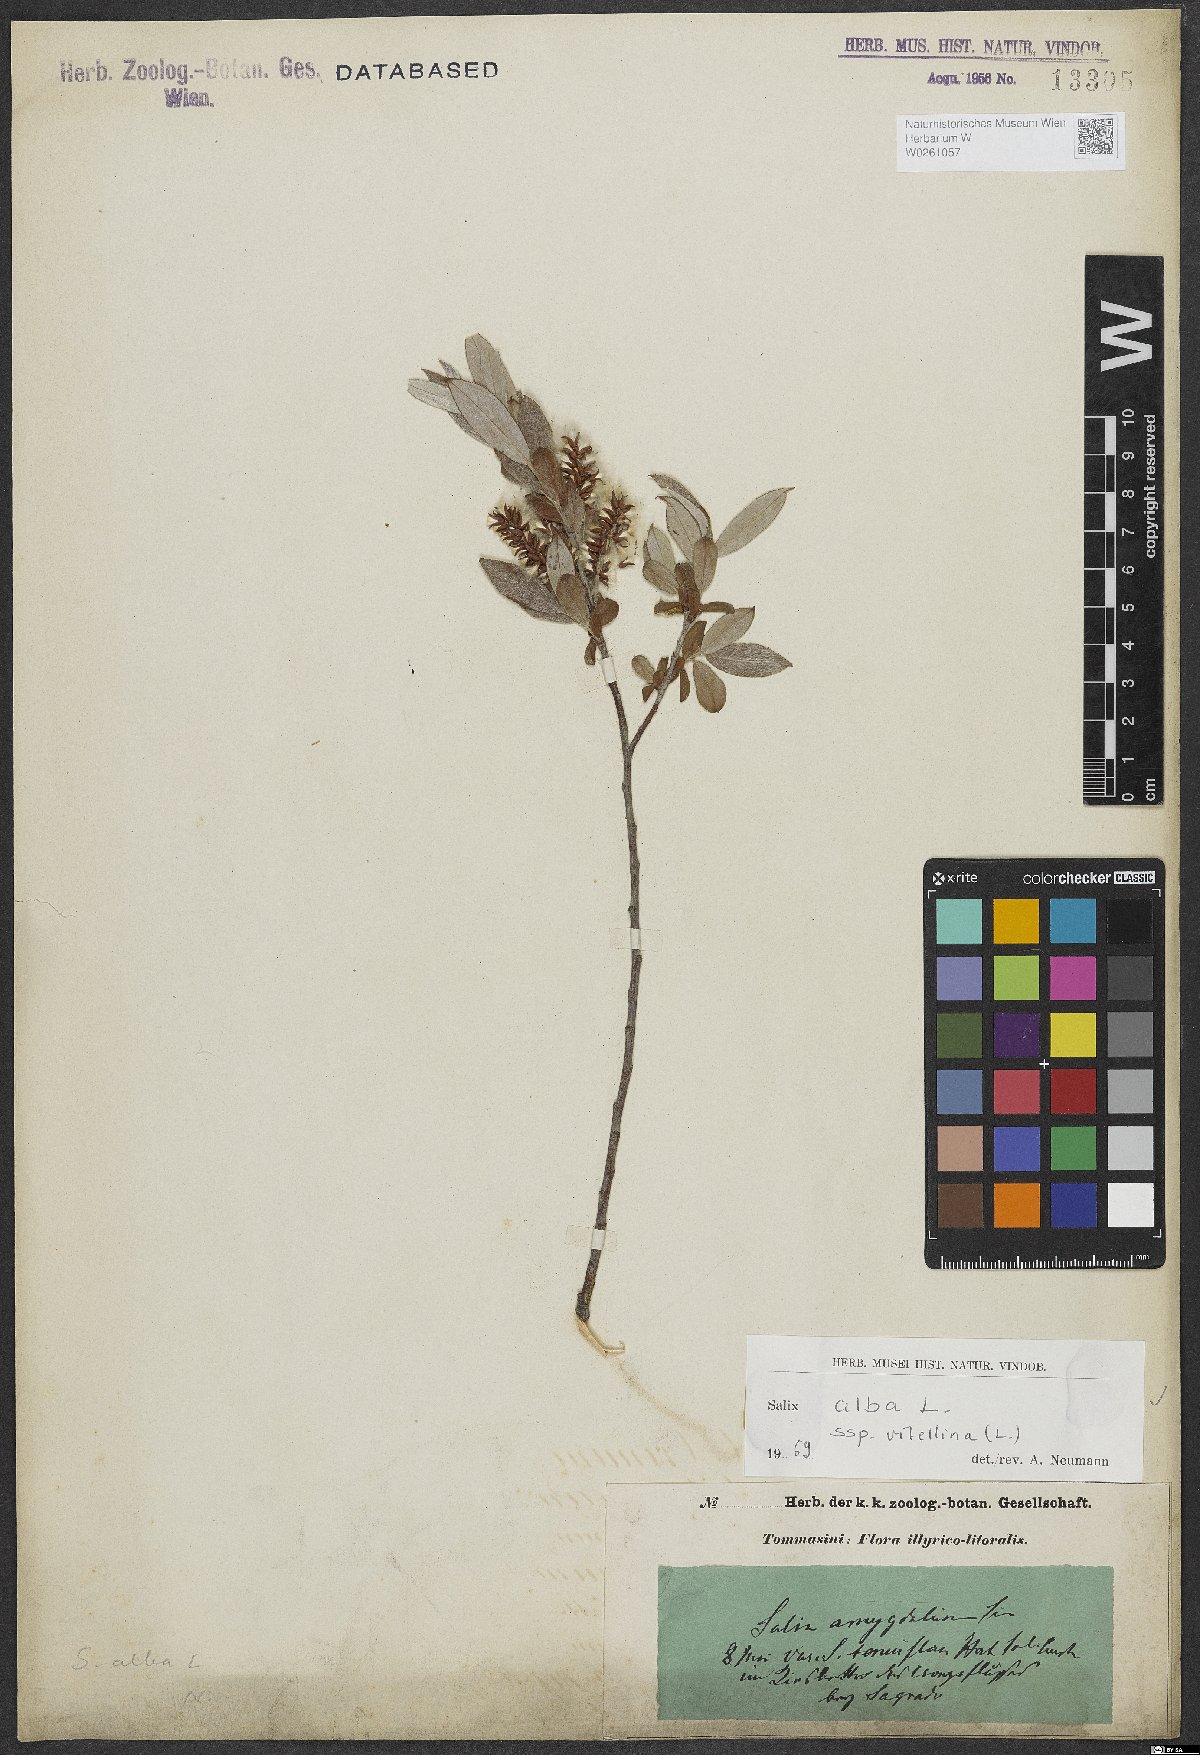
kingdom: Plantae
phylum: Tracheophyta
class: Magnoliopsida
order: Malpighiales
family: Salicaceae
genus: Salix
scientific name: Salix alba
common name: White willow
